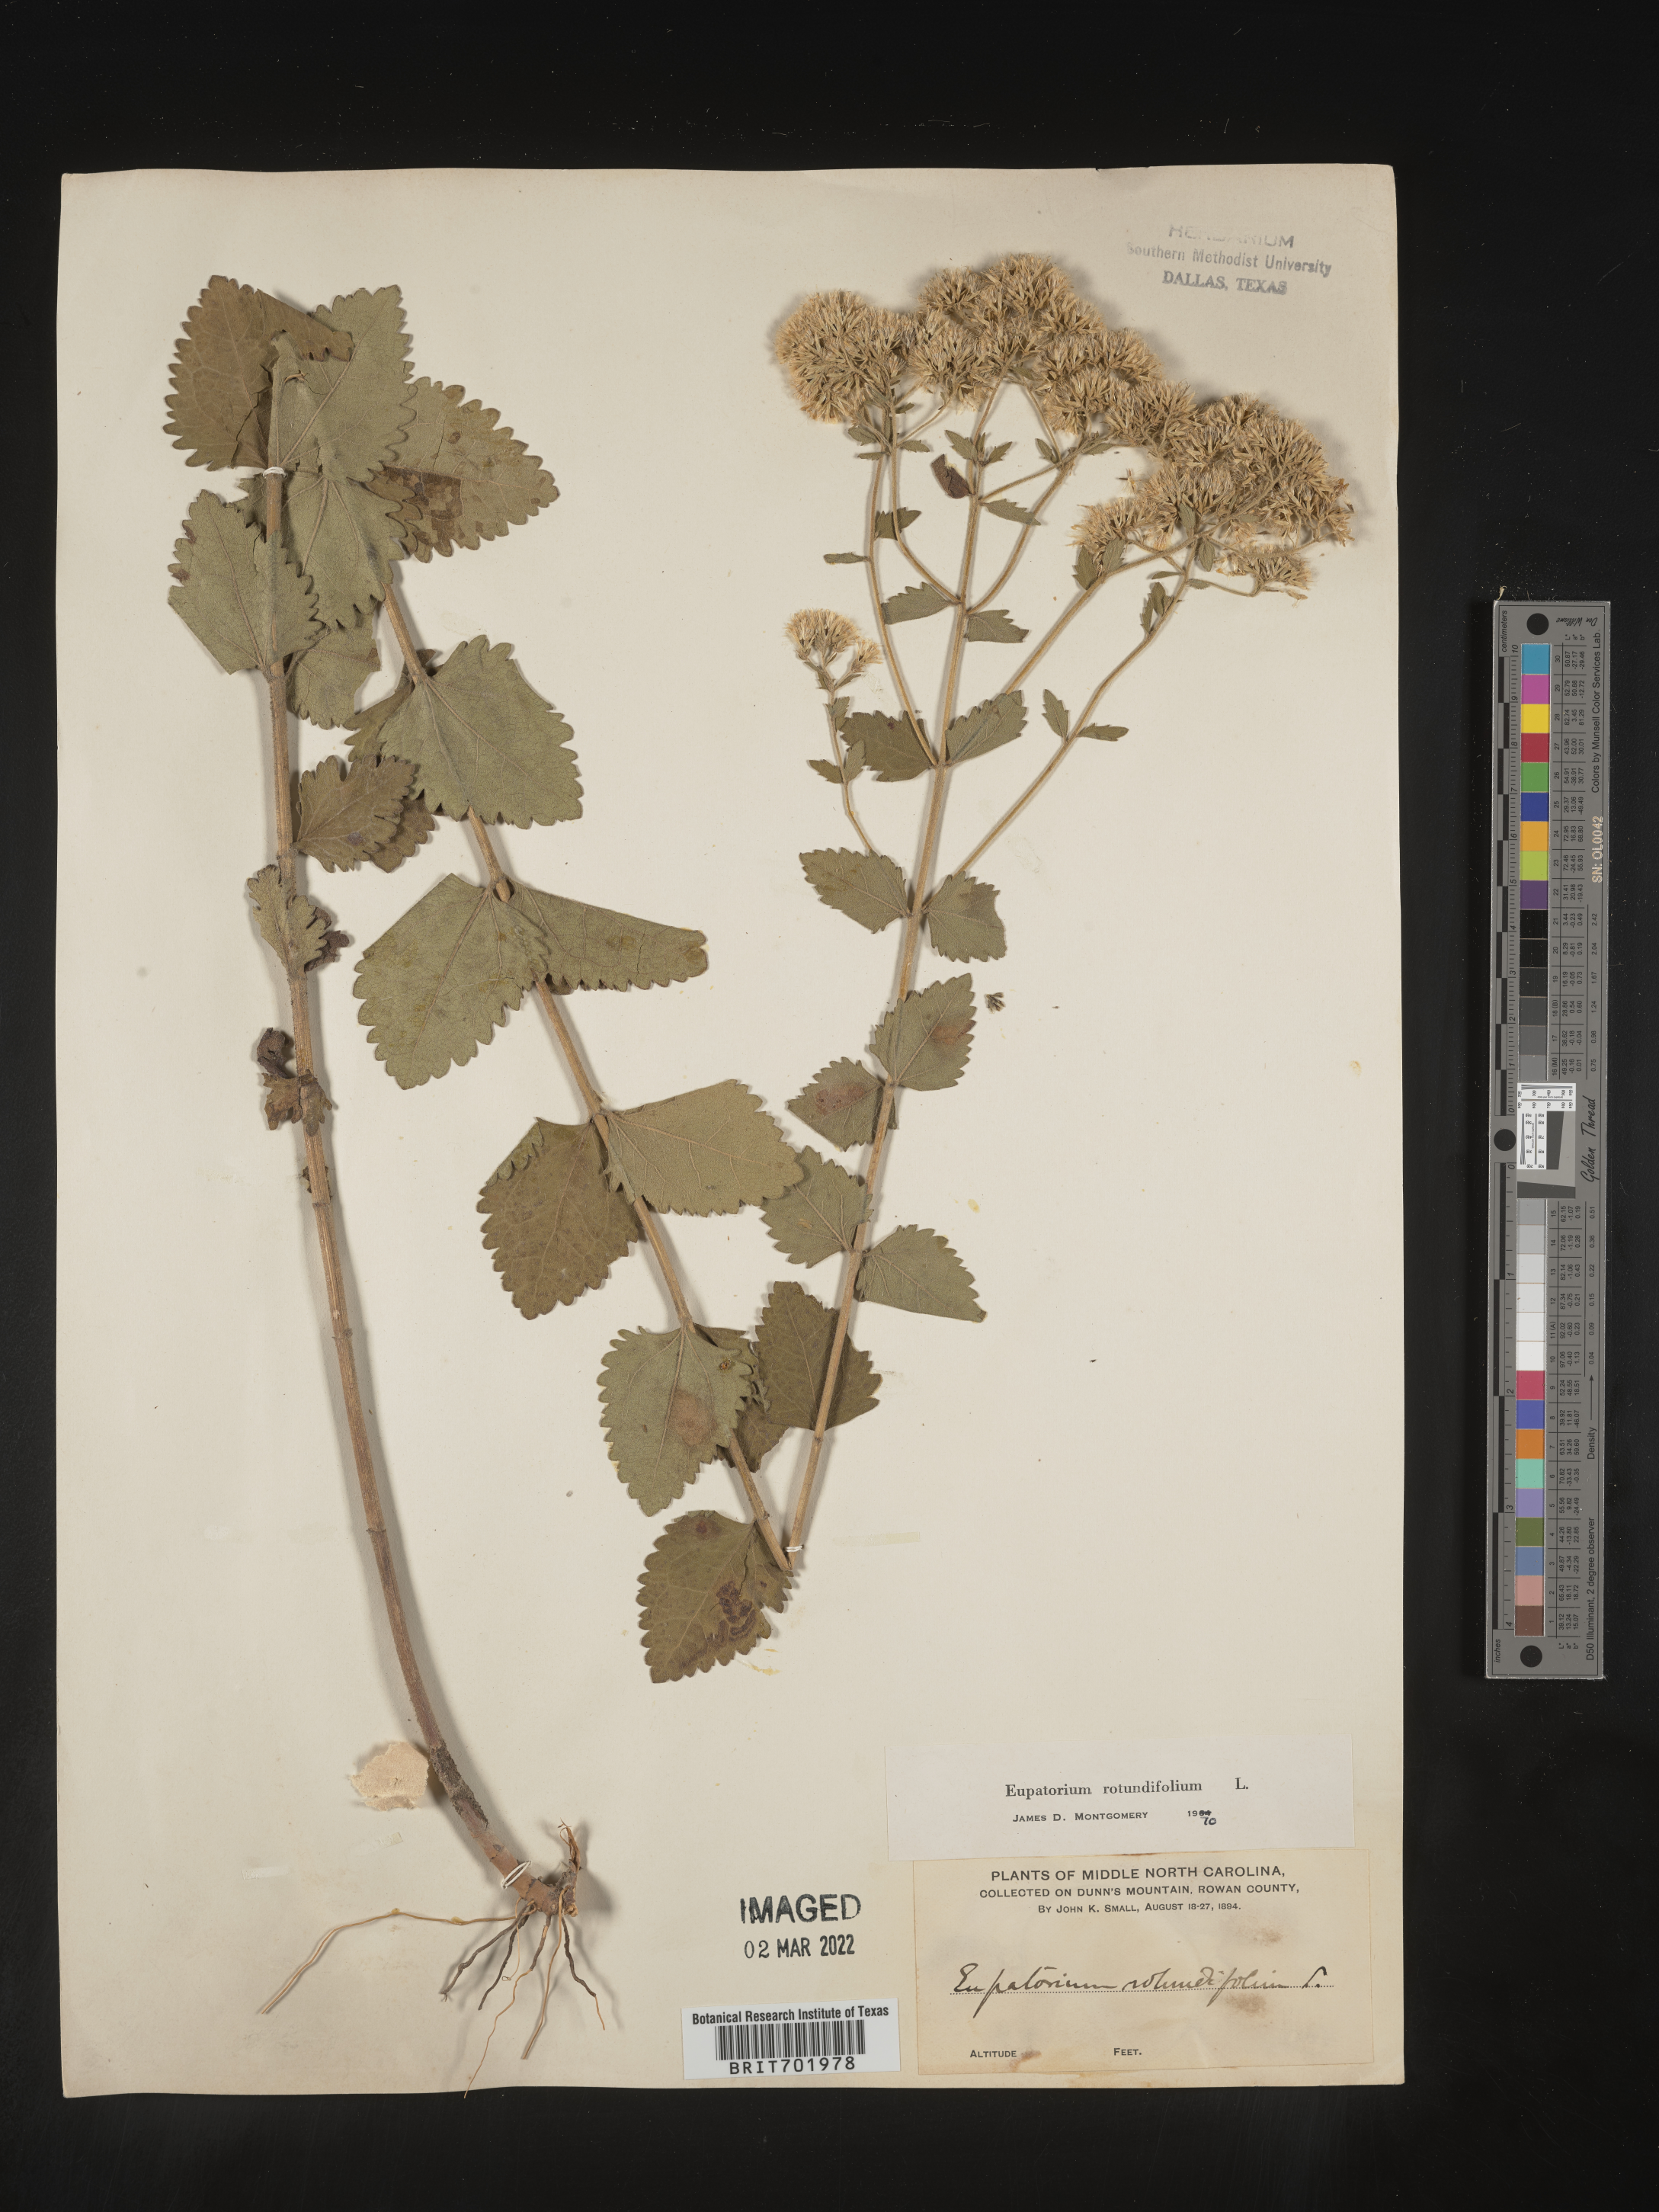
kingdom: Plantae
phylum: Tracheophyta
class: Magnoliopsida
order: Asterales
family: Asteraceae
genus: Eupatorium
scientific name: Eupatorium rotundifolium
